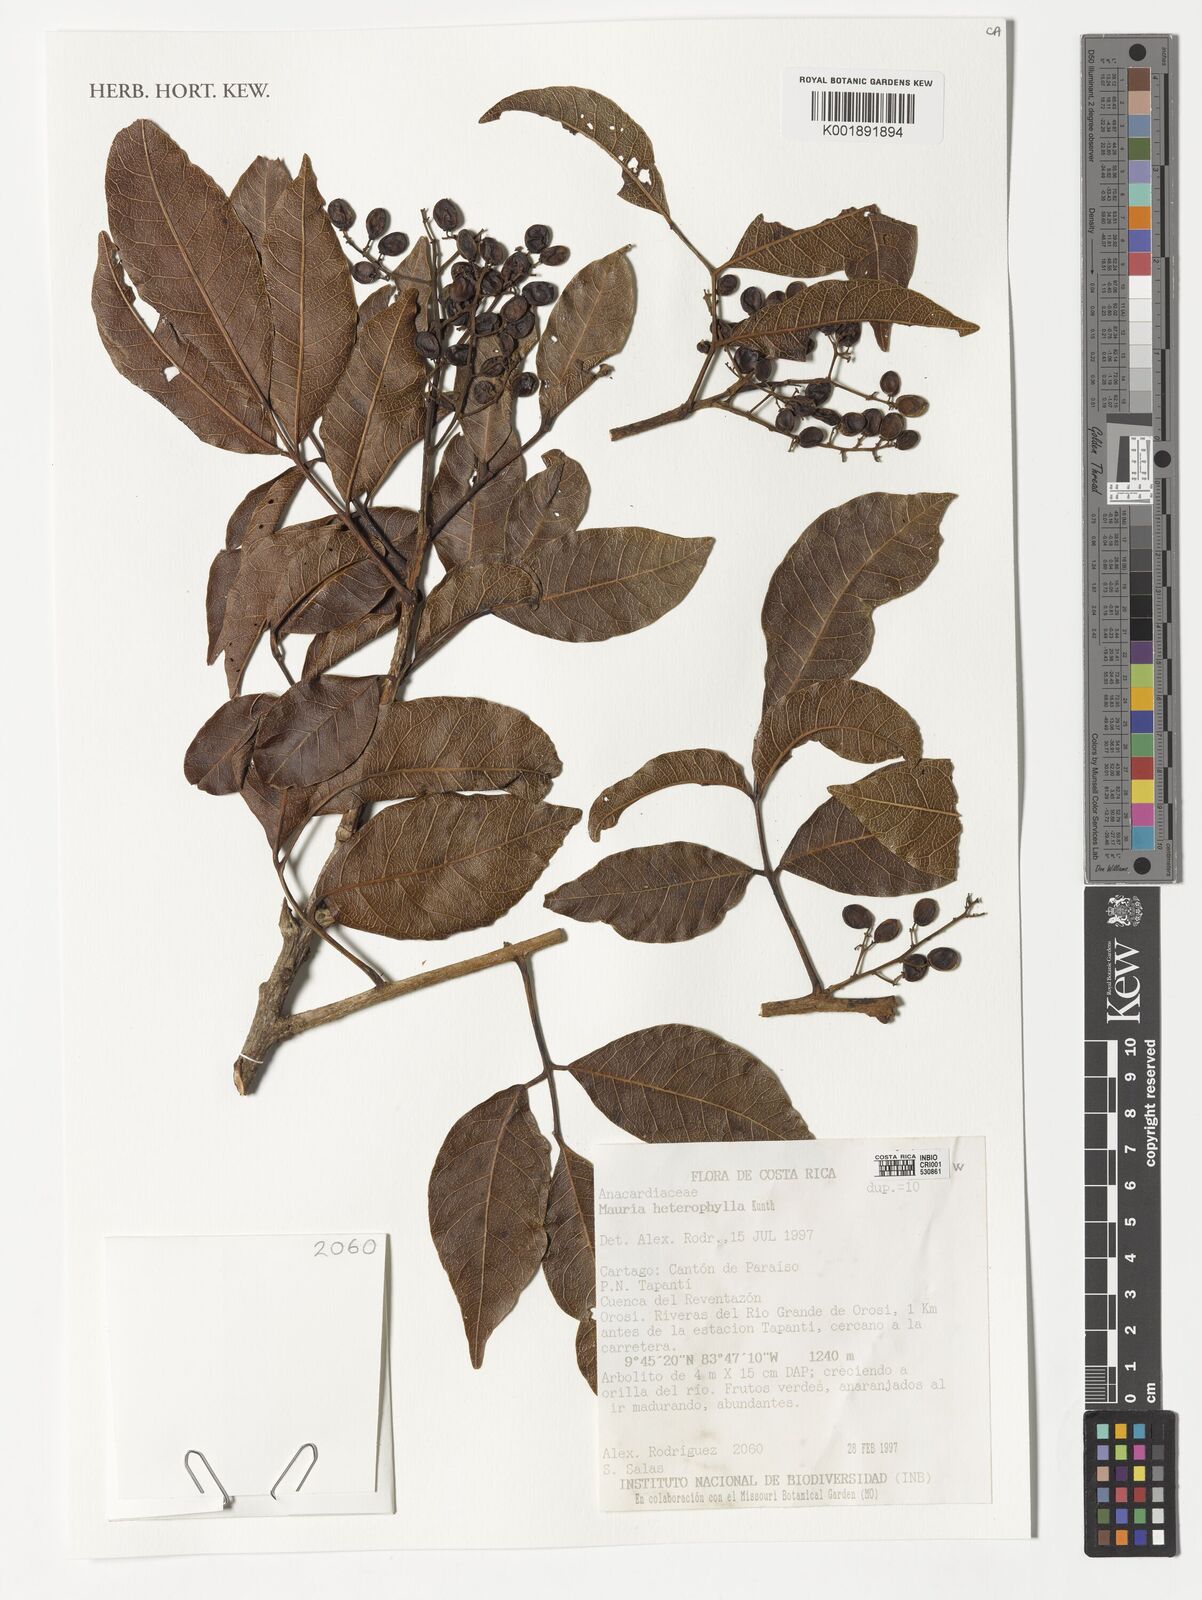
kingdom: Plantae
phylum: Tracheophyta
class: Magnoliopsida
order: Sapindales
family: Anacardiaceae
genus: Mauria
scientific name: Mauria heterophylla
